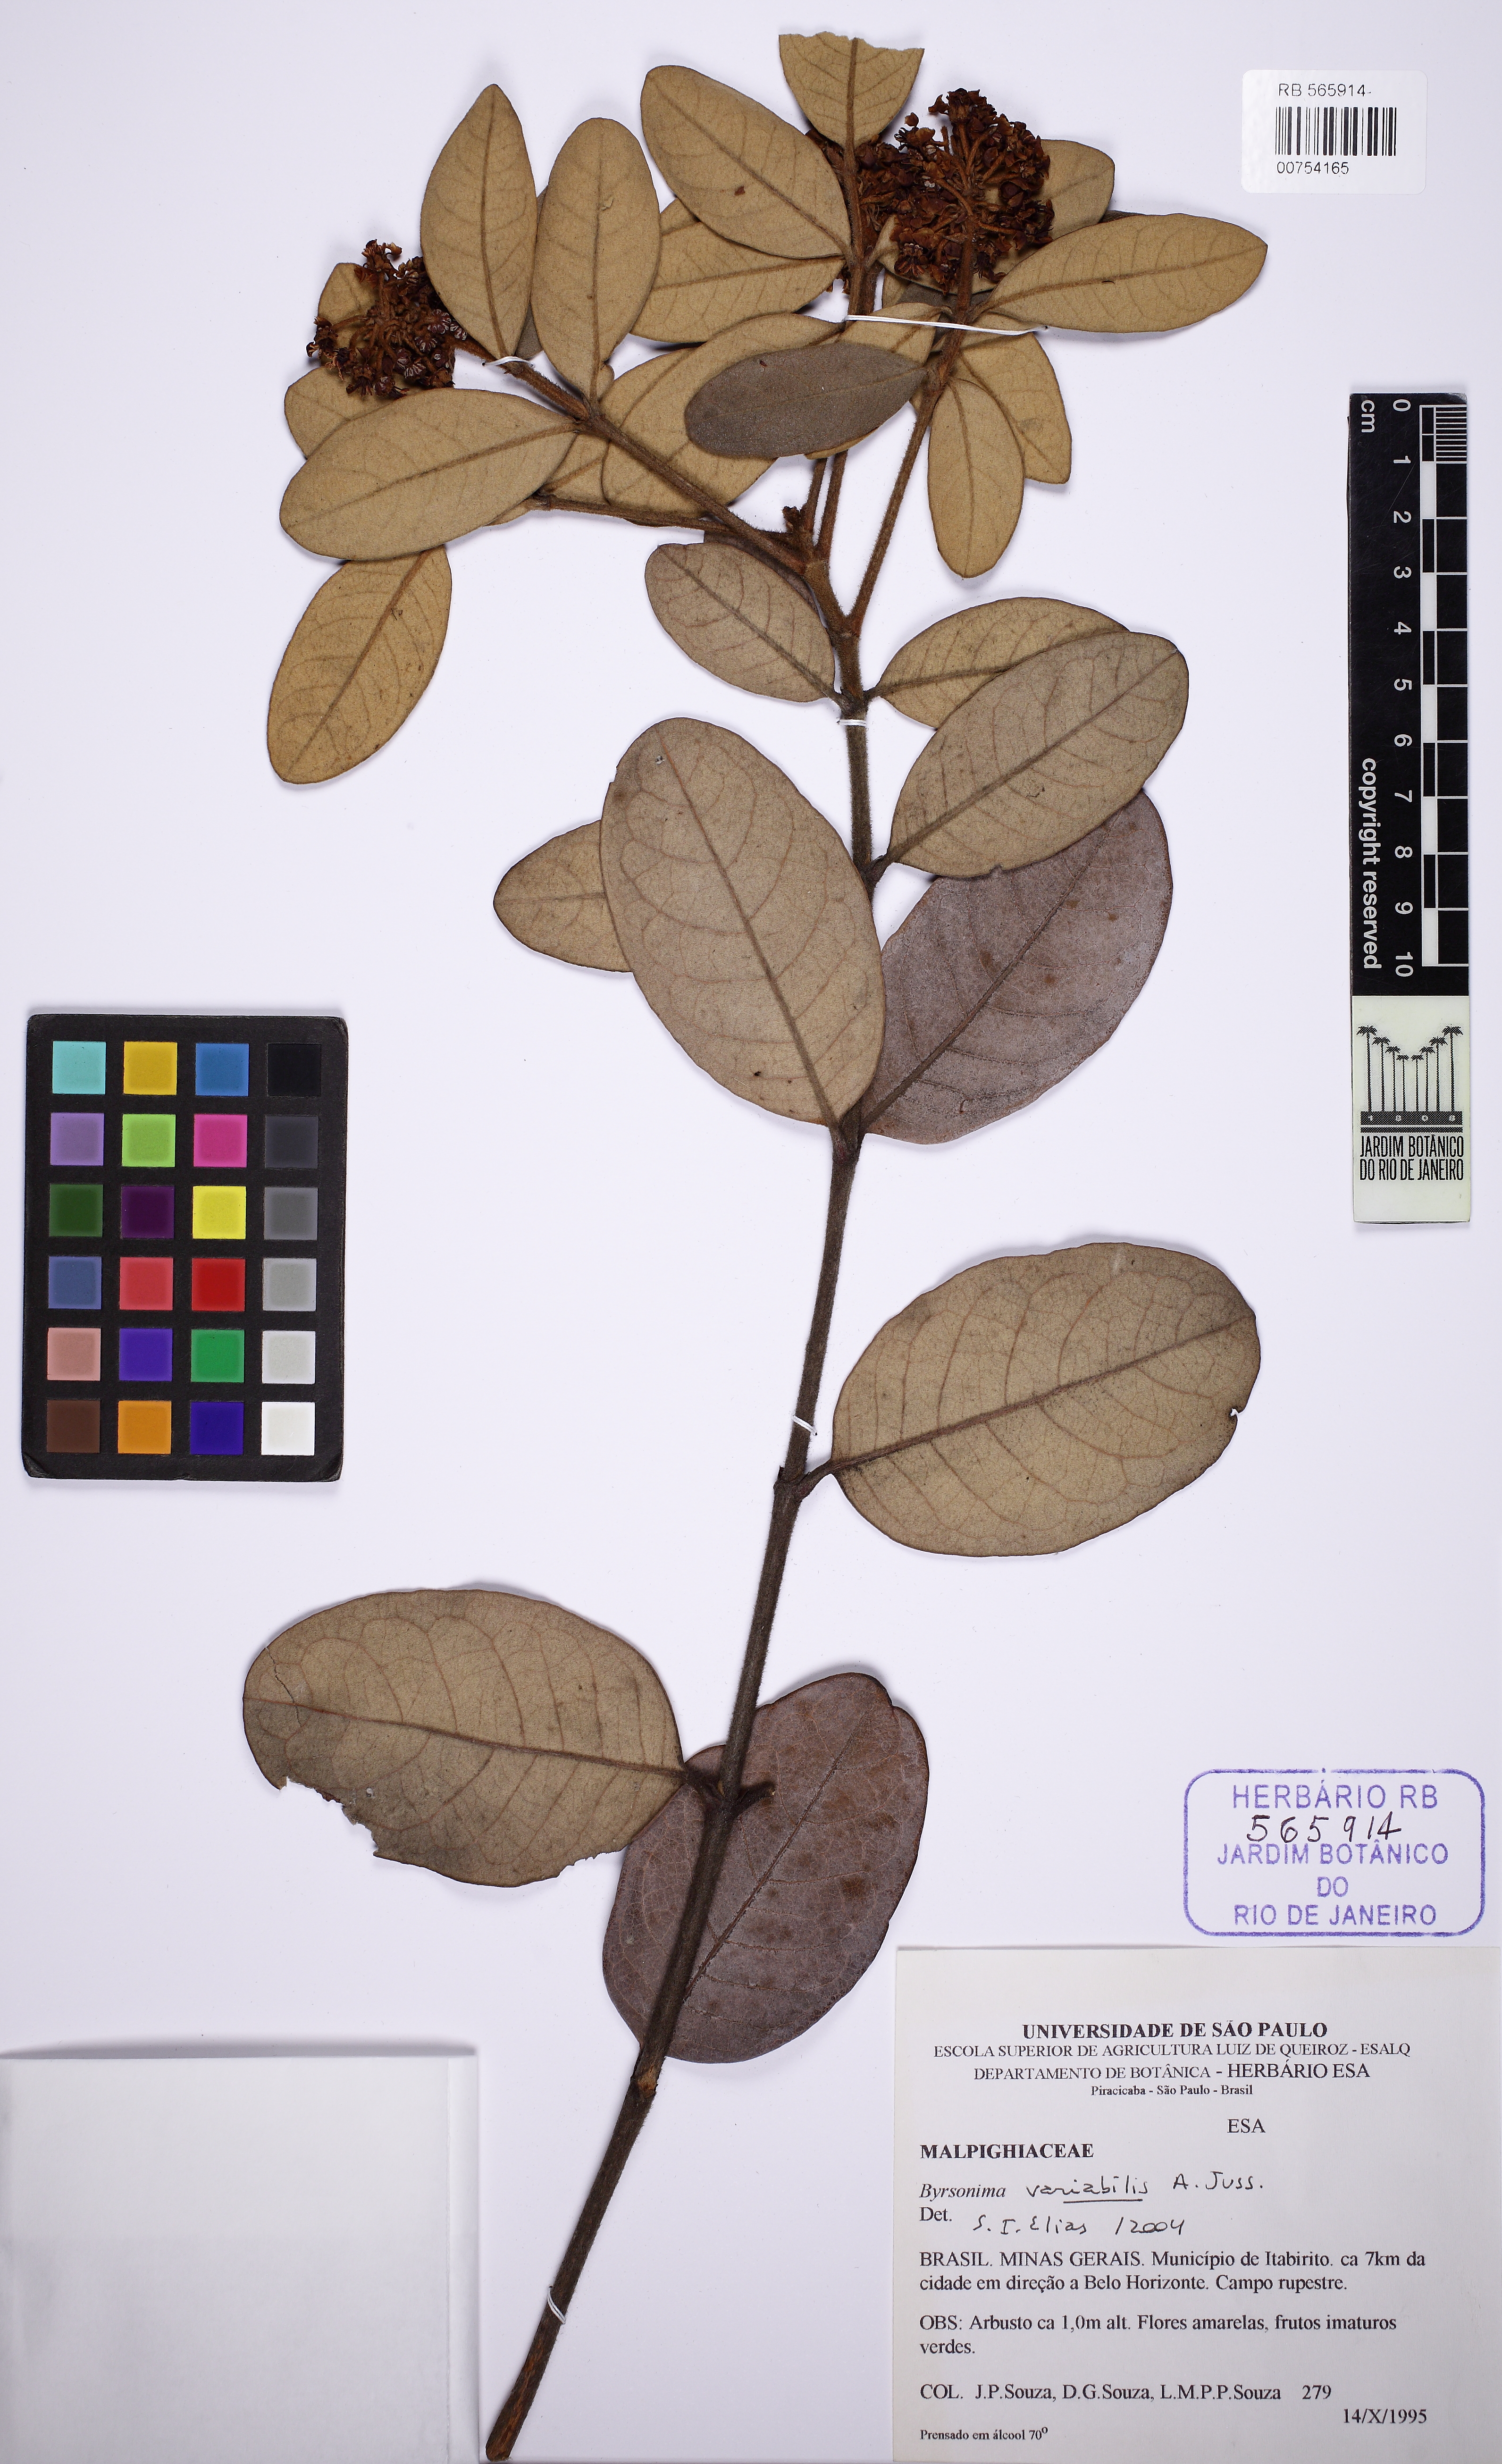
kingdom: Plantae
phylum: Tracheophyta
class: Magnoliopsida
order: Malpighiales
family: Malpighiaceae
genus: Byrsonima
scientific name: Byrsonima variabilis
